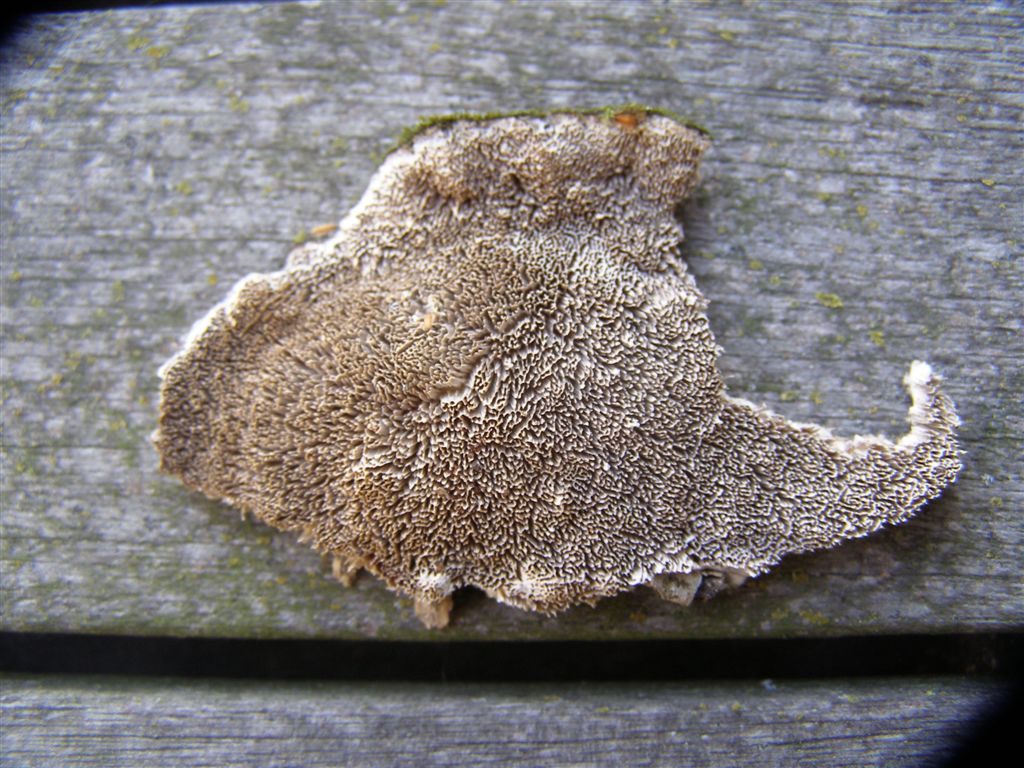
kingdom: Fungi
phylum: Basidiomycota
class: Agaricomycetes
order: Polyporales
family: Cerrenaceae
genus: Cerrena
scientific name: Cerrena unicolor
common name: ensfarvet læderporesvamp
